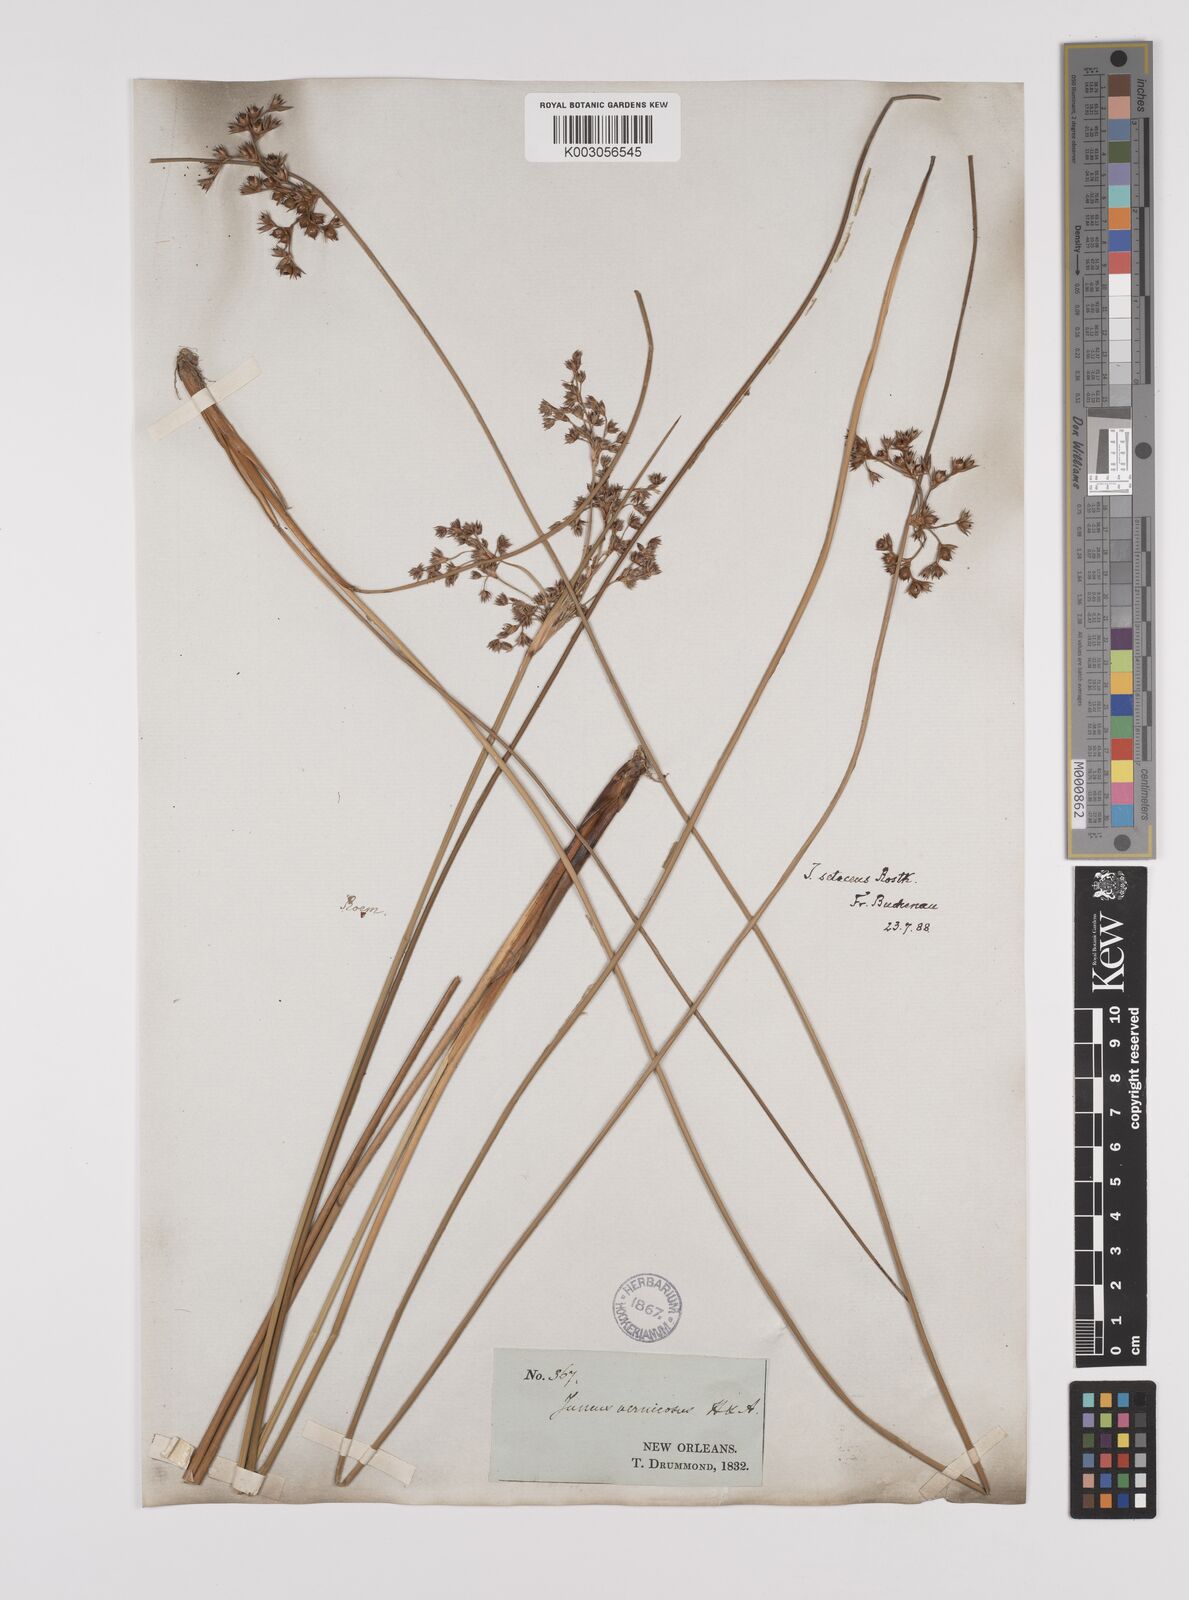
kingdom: Plantae
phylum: Tracheophyta
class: Liliopsida
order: Poales
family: Juncaceae
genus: Juncus
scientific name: Juncus balticus
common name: Baltic rush
